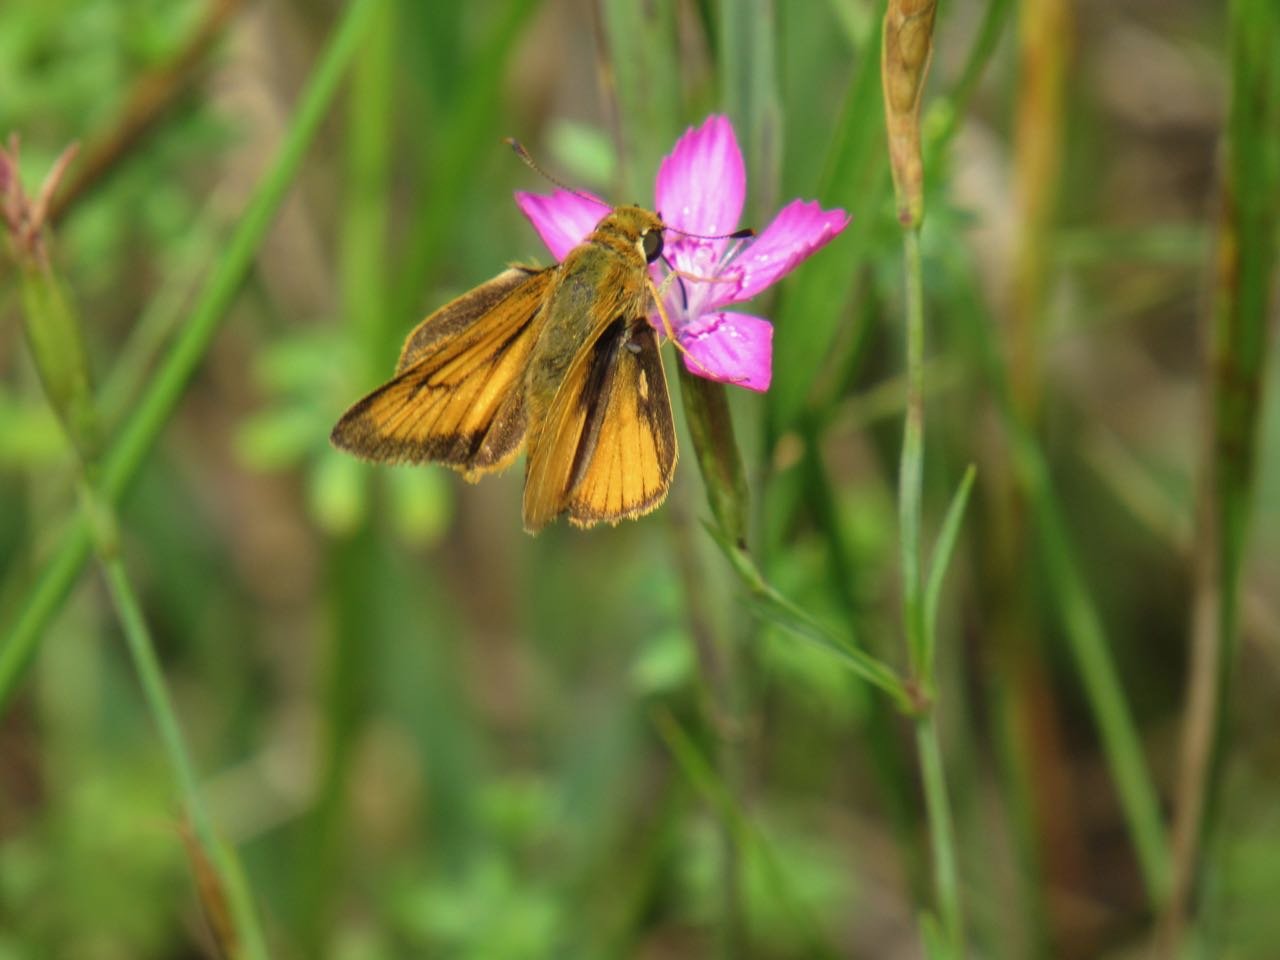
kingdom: Animalia
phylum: Arthropoda
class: Insecta
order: Lepidoptera
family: Hesperiidae
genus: Atrytone
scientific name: Atrytone delaware
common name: Delaware Skipper
